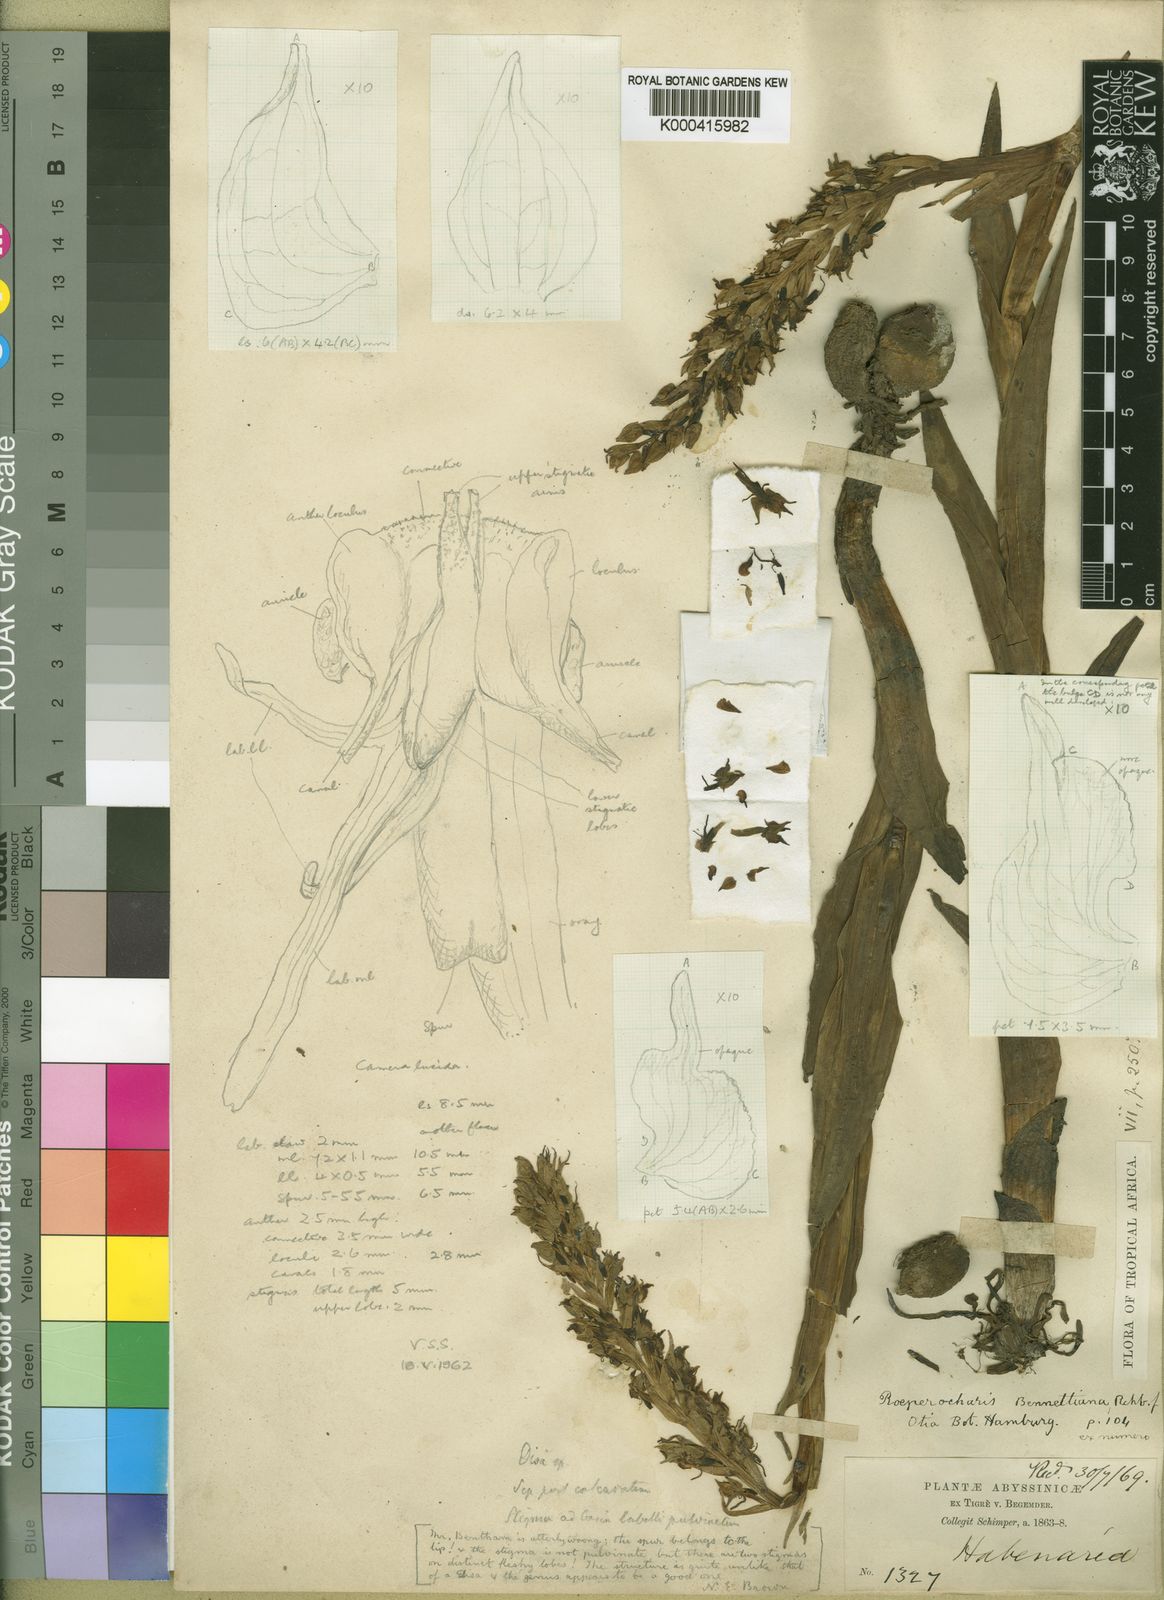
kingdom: Plantae
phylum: Tracheophyta
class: Liliopsida
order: Asparagales
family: Orchidaceae
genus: Roeperocharis
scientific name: Roeperocharis bennettiana
